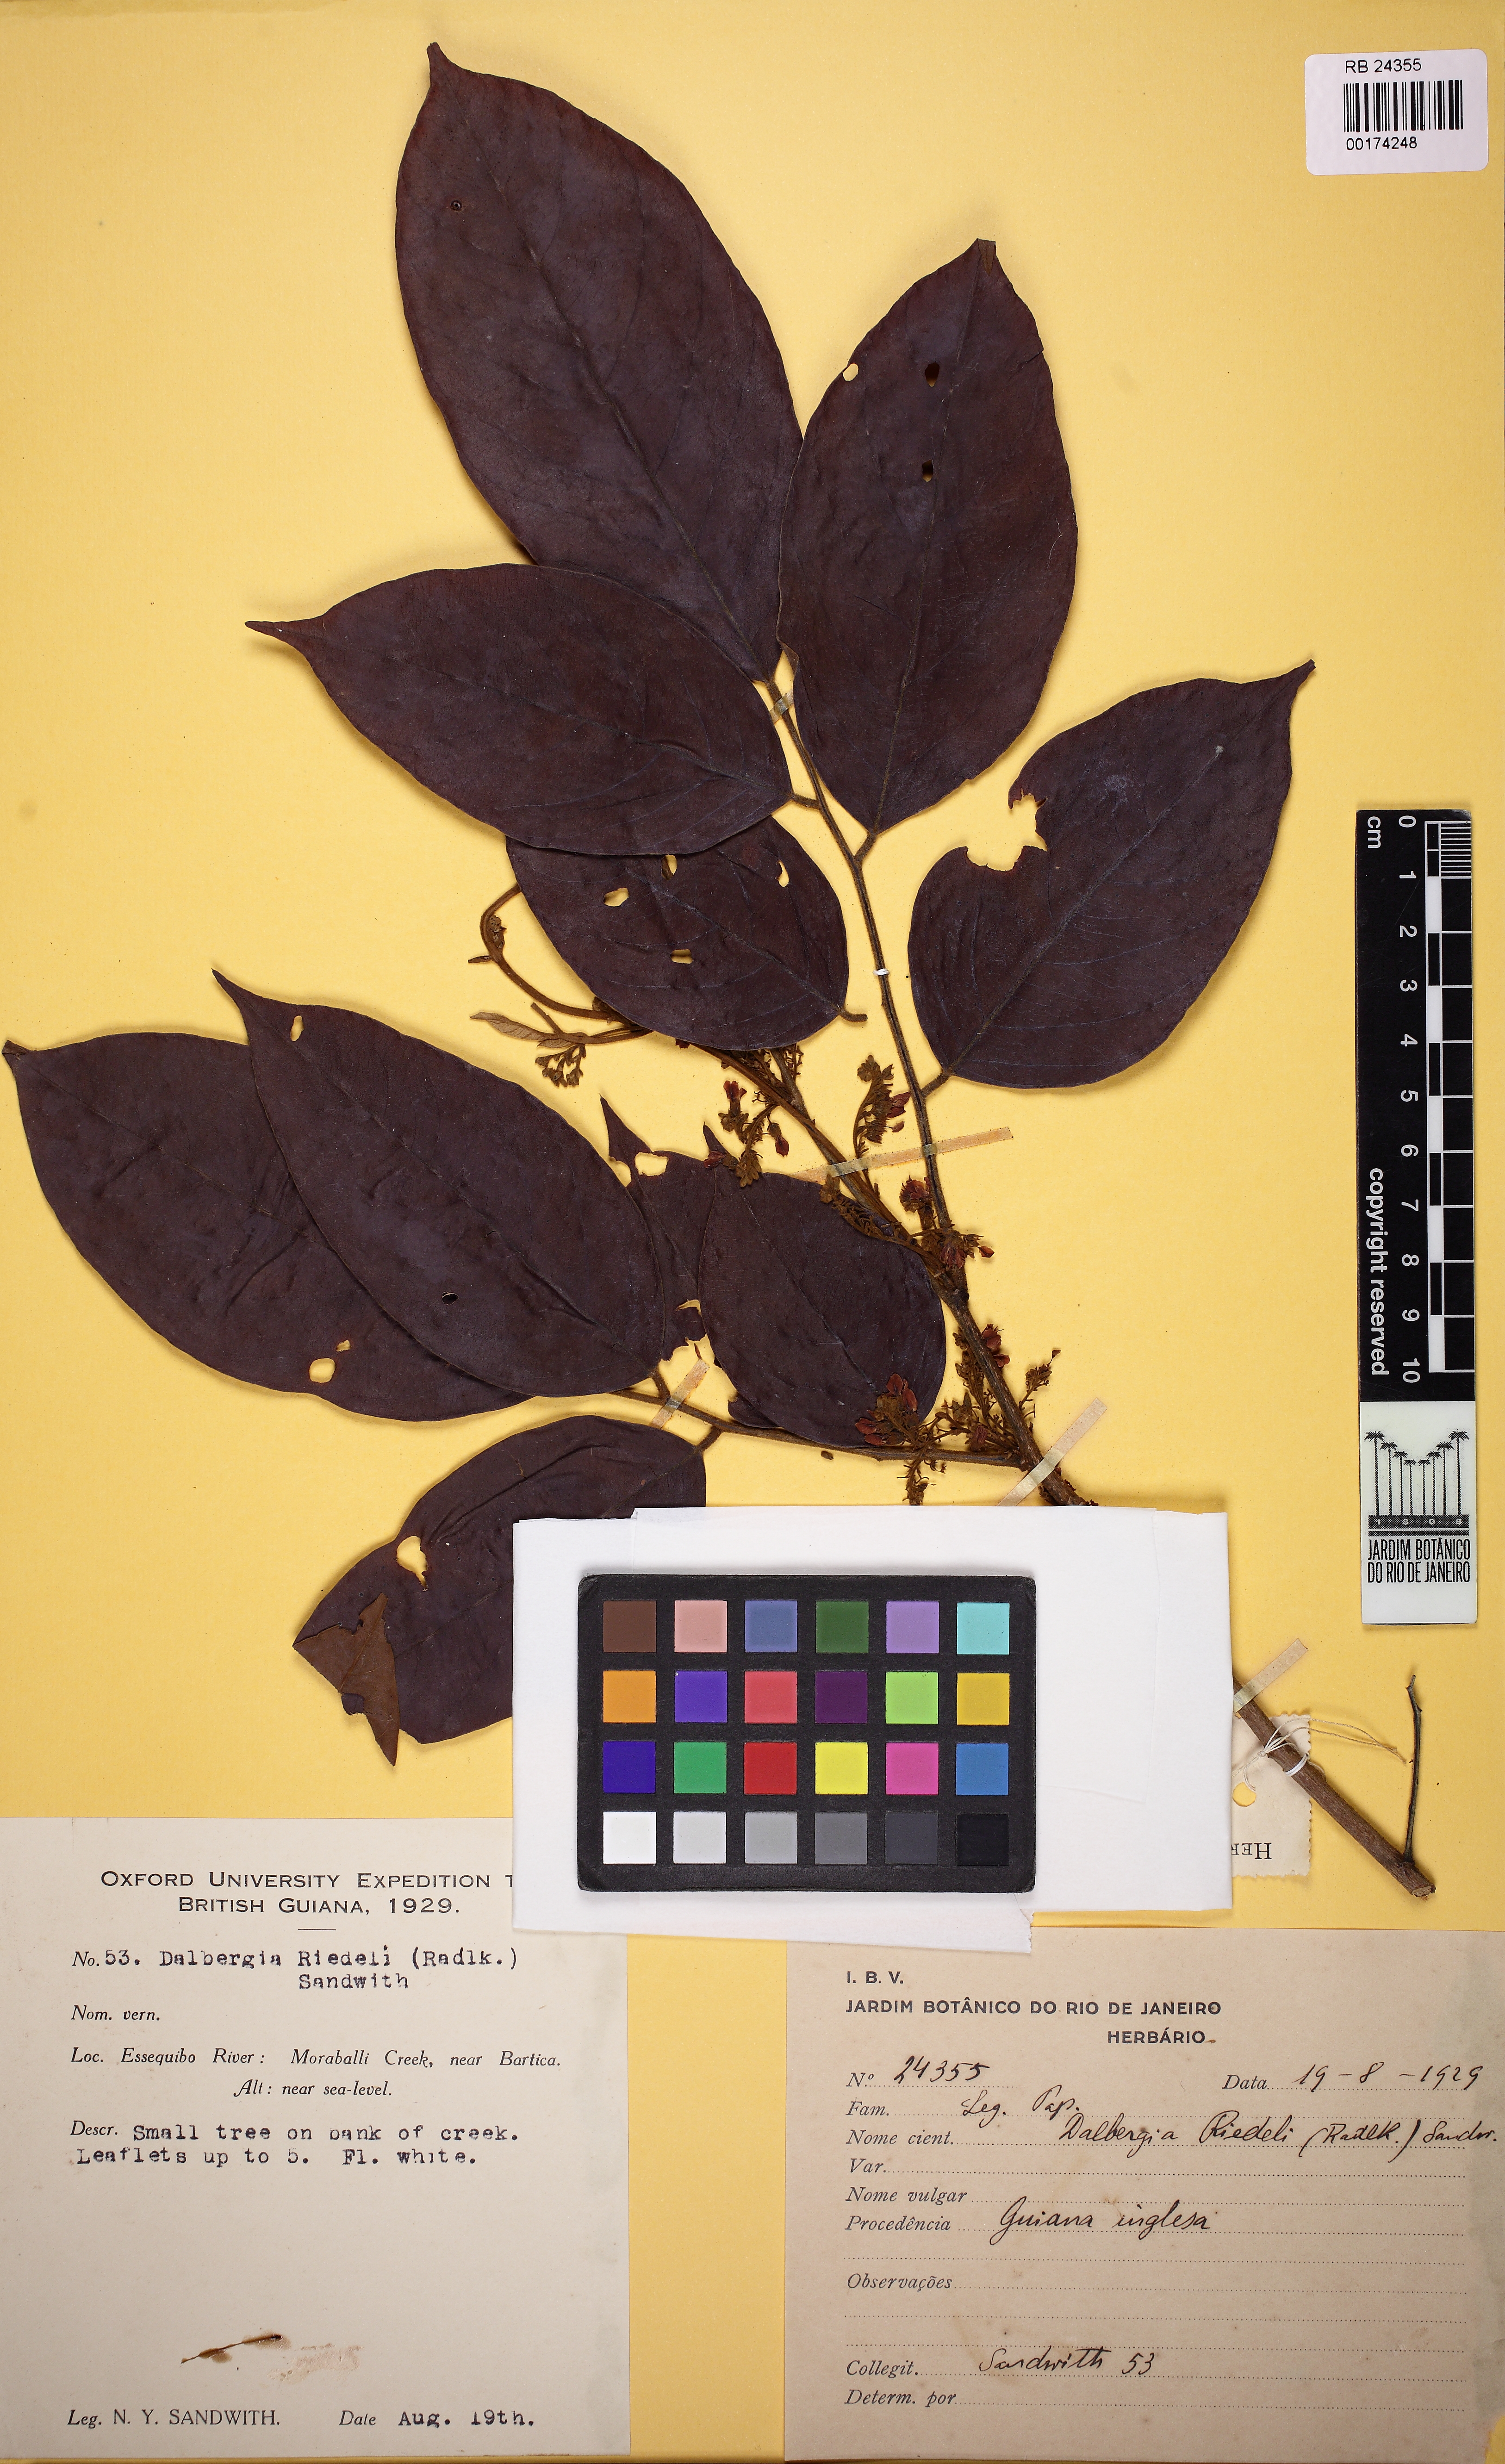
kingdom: Plantae
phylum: Tracheophyta
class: Magnoliopsida
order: Fabales
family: Fabaceae
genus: Dalbergia
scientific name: Dalbergia riedelii
